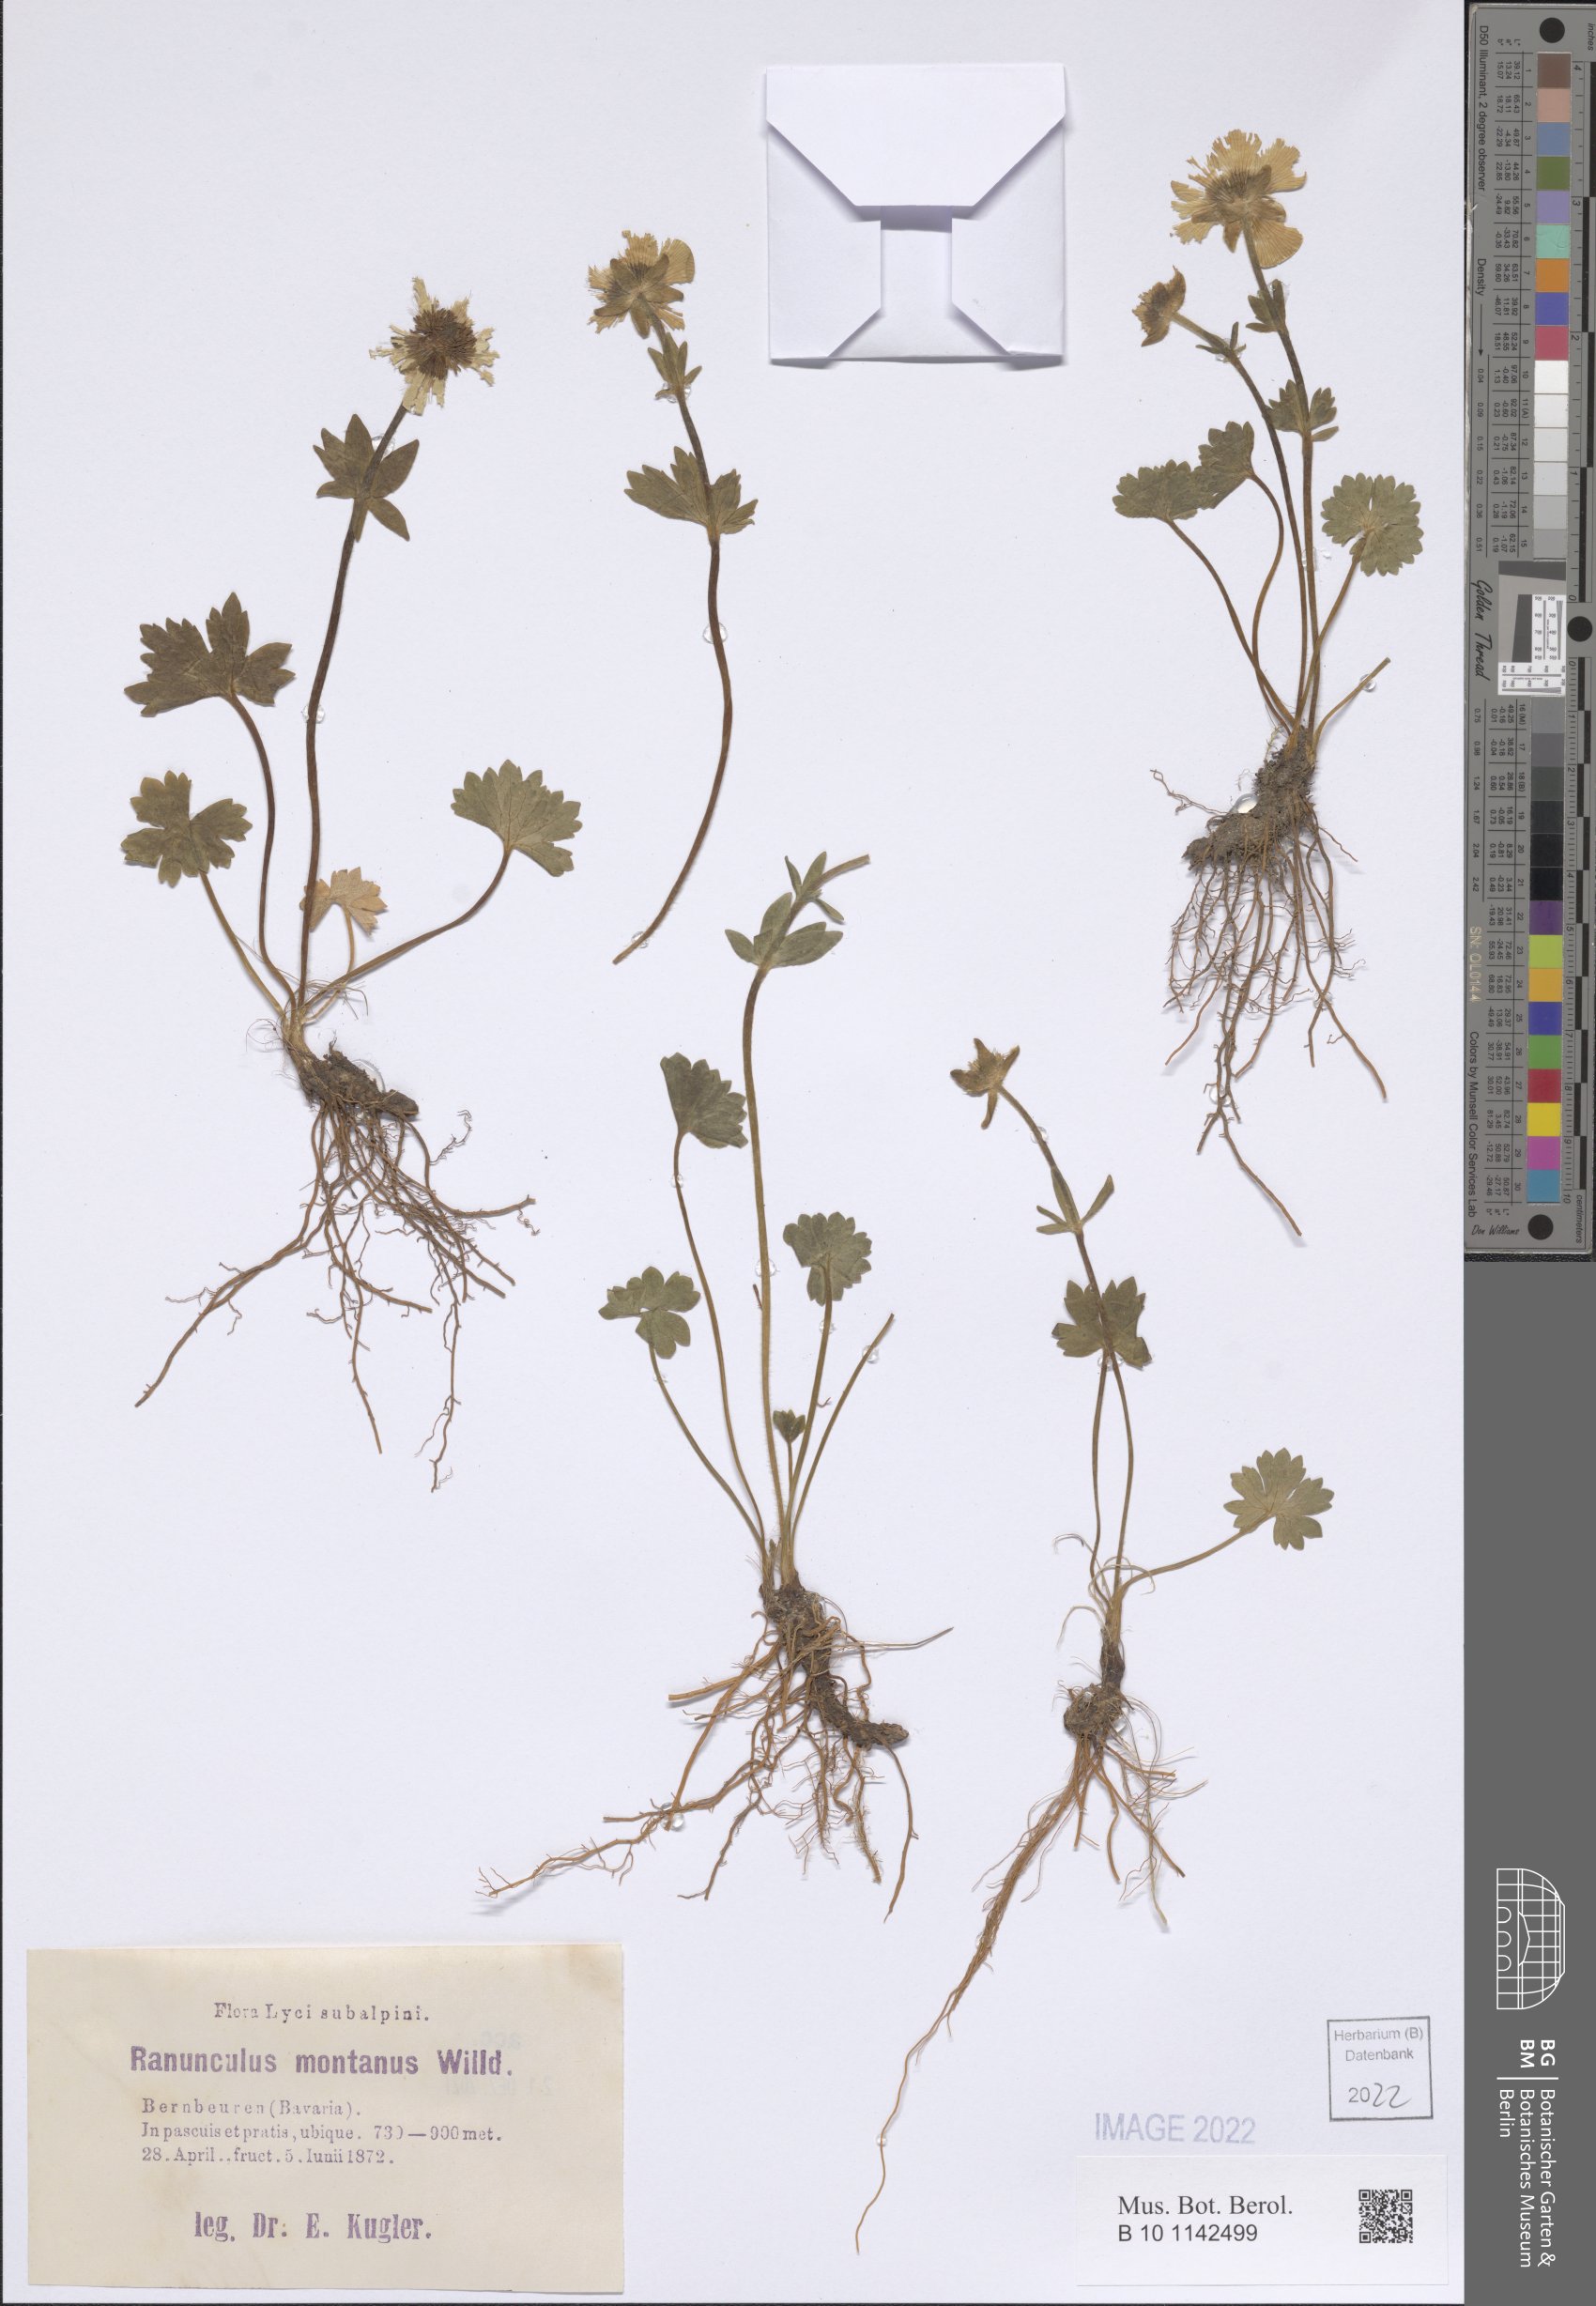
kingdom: Plantae
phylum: Tracheophyta
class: Magnoliopsida
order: Ranunculales
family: Ranunculaceae
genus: Ranunculus
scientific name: Ranunculus montanus
